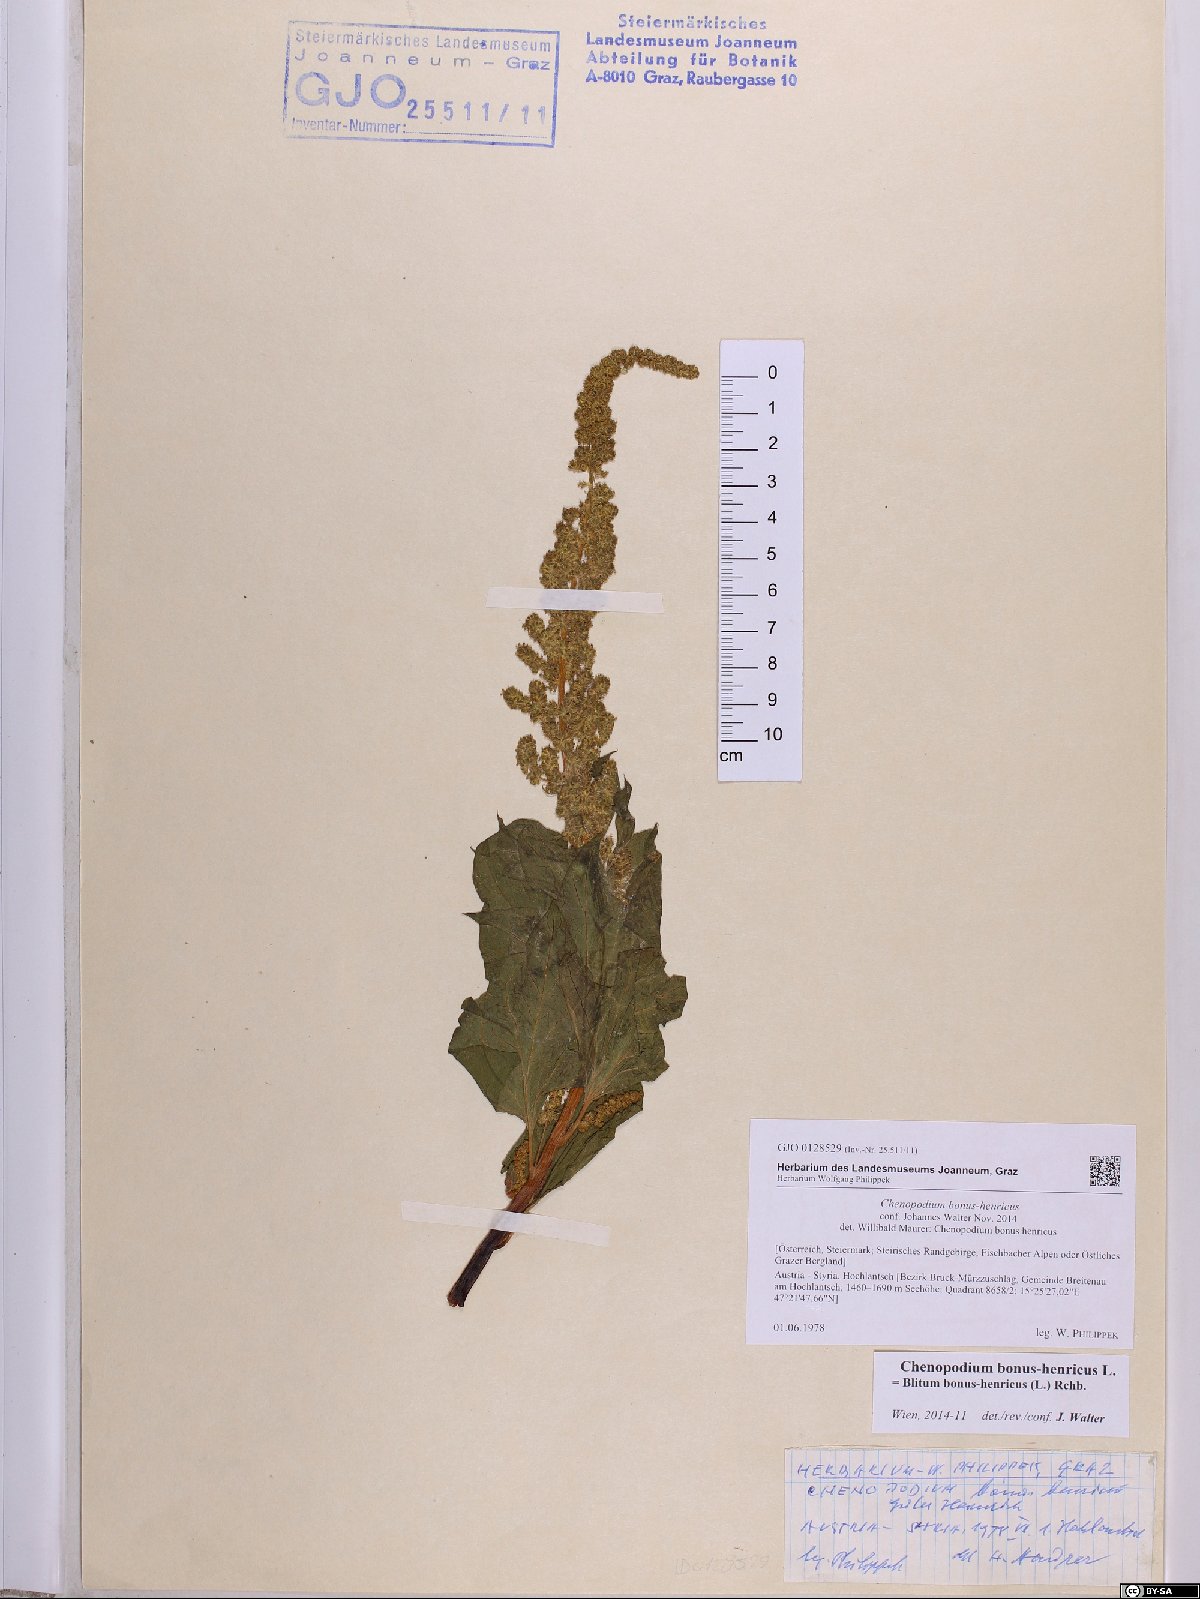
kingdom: Plantae
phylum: Tracheophyta
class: Magnoliopsida
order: Caryophyllales
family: Amaranthaceae
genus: Blitum
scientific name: Blitum bonus-henricus
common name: Good king henry
